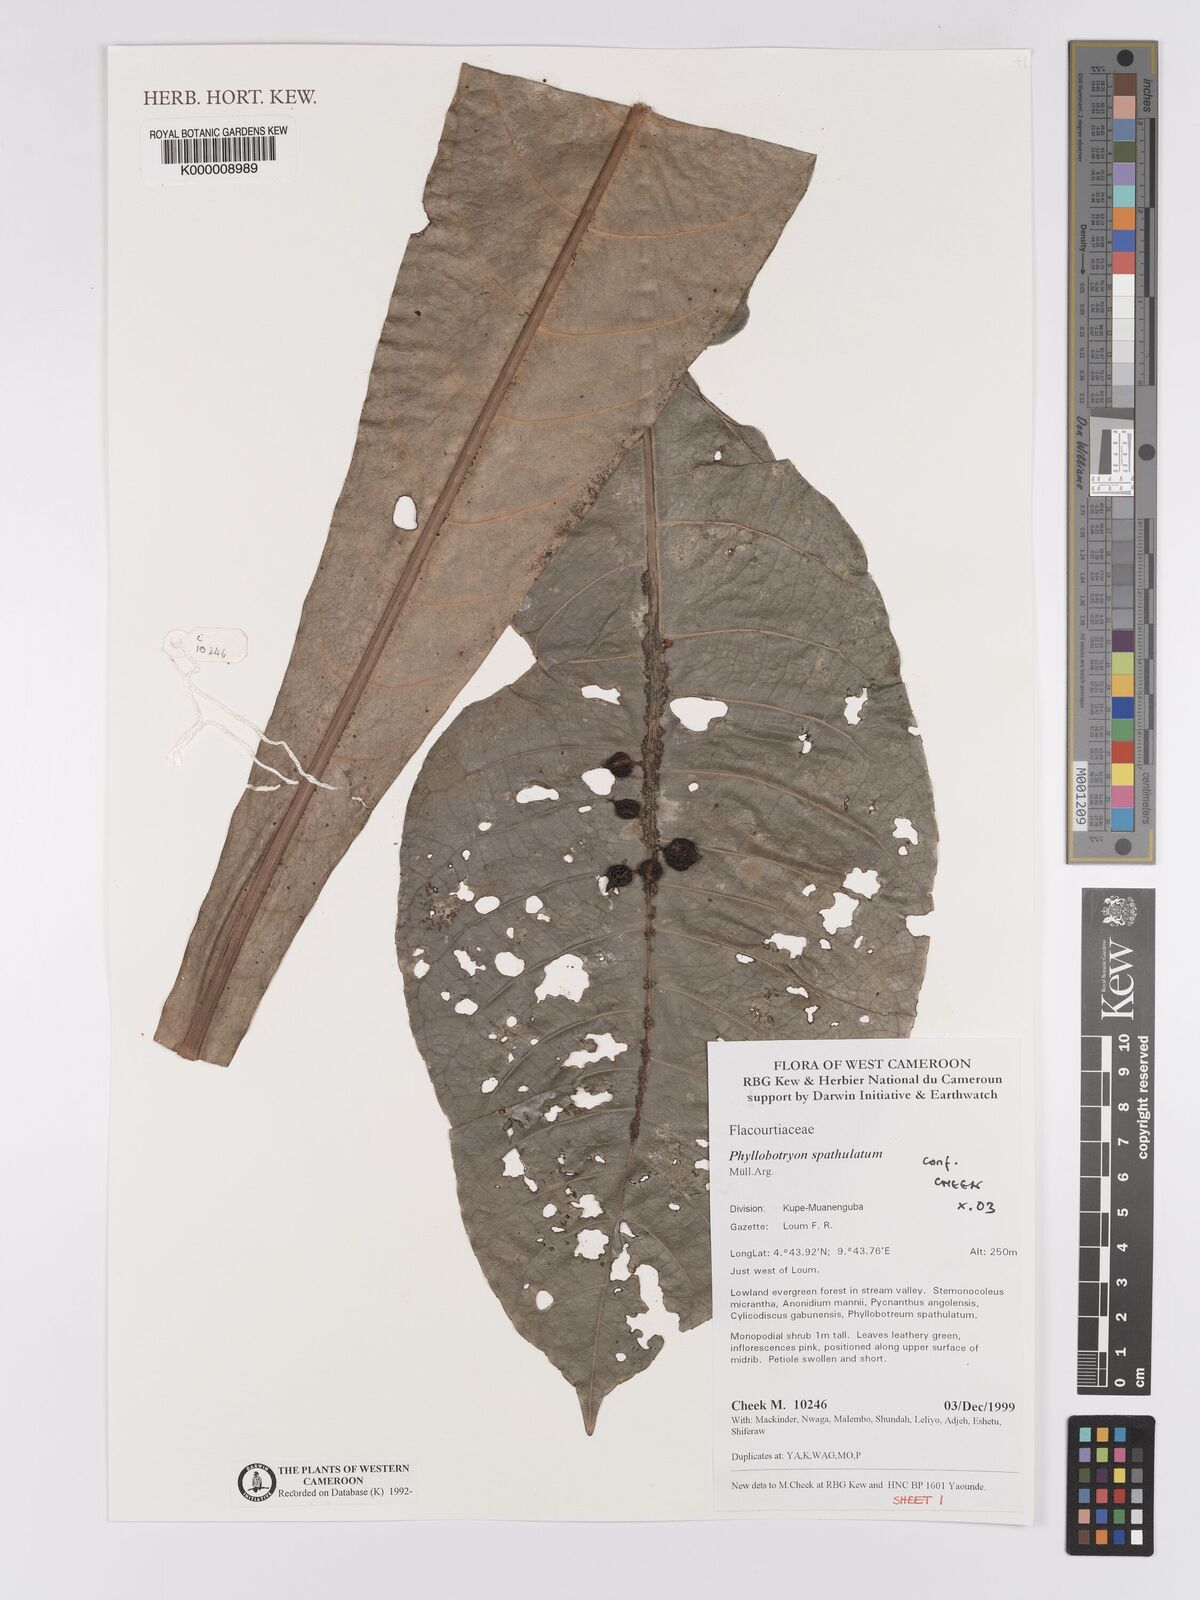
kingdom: Plantae
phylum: Tracheophyta
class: Magnoliopsida
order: Malpighiales
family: Salicaceae
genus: Phyllobotryon
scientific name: Phyllobotryon
